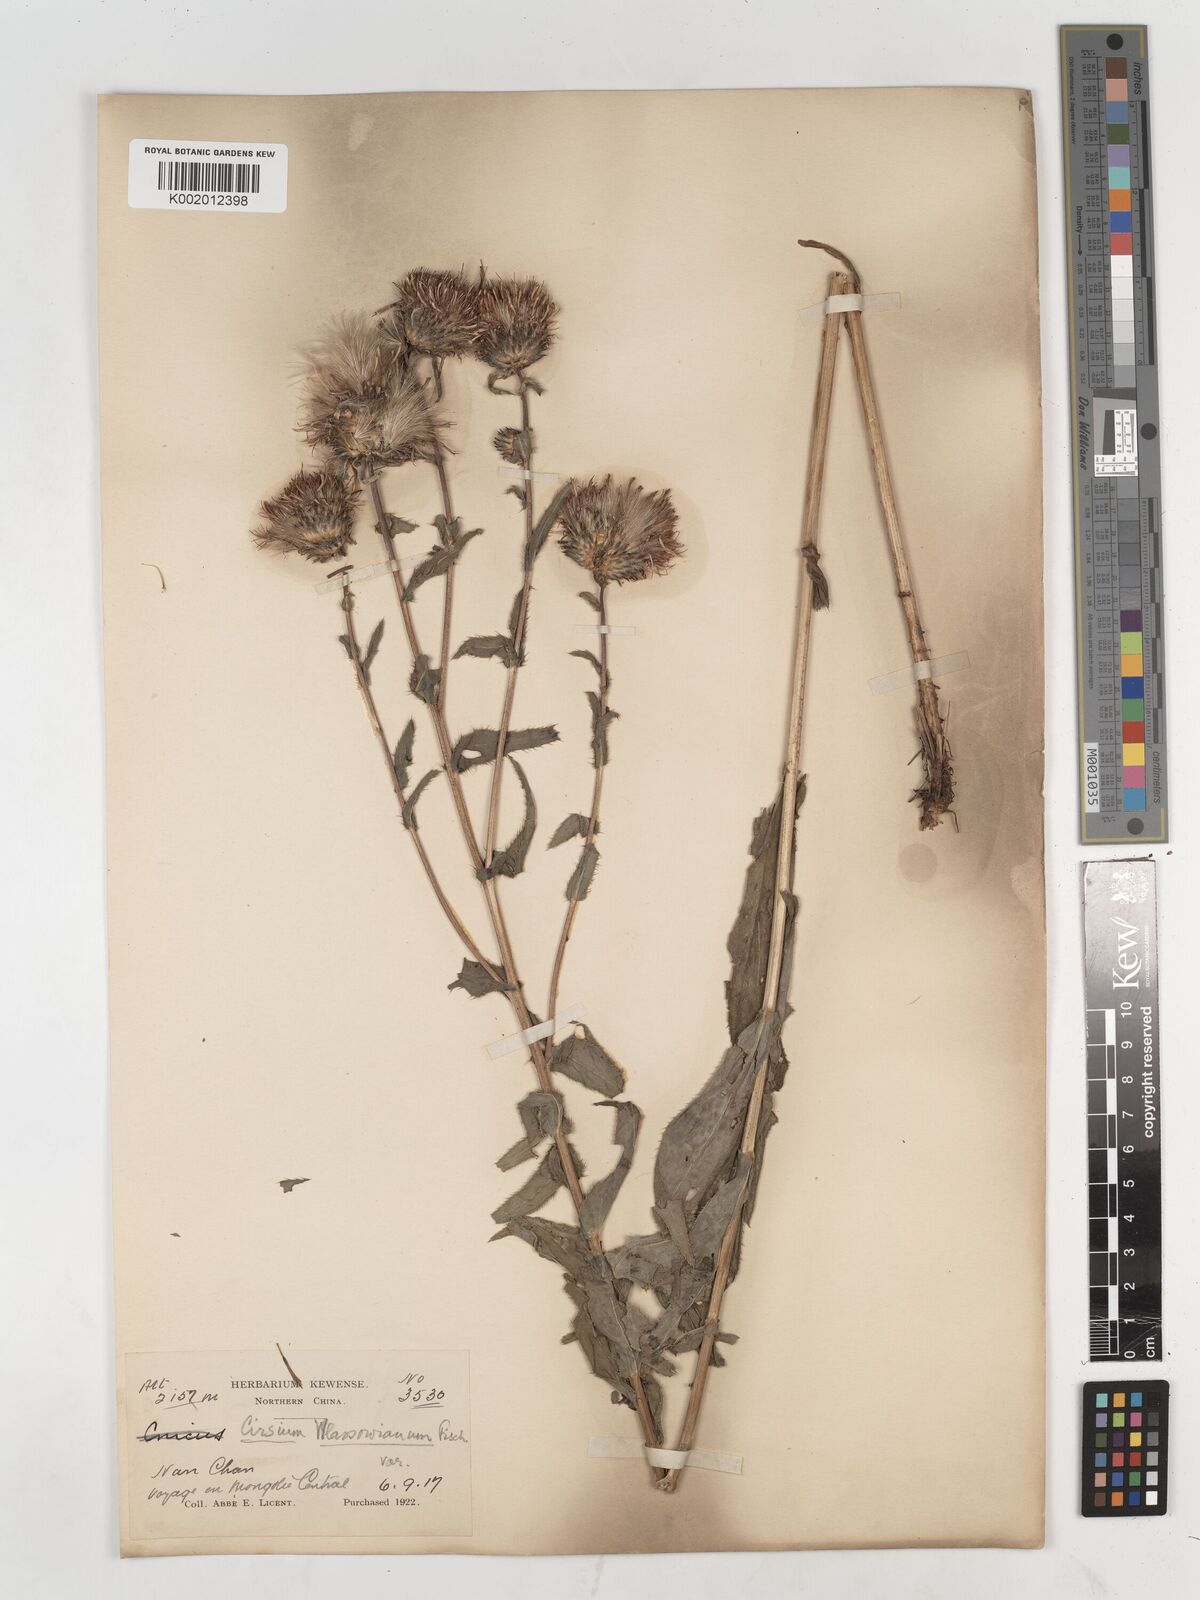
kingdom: Plantae
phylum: Tracheophyta
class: Magnoliopsida
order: Asterales
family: Asteraceae
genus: Cirsium
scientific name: Cirsium
